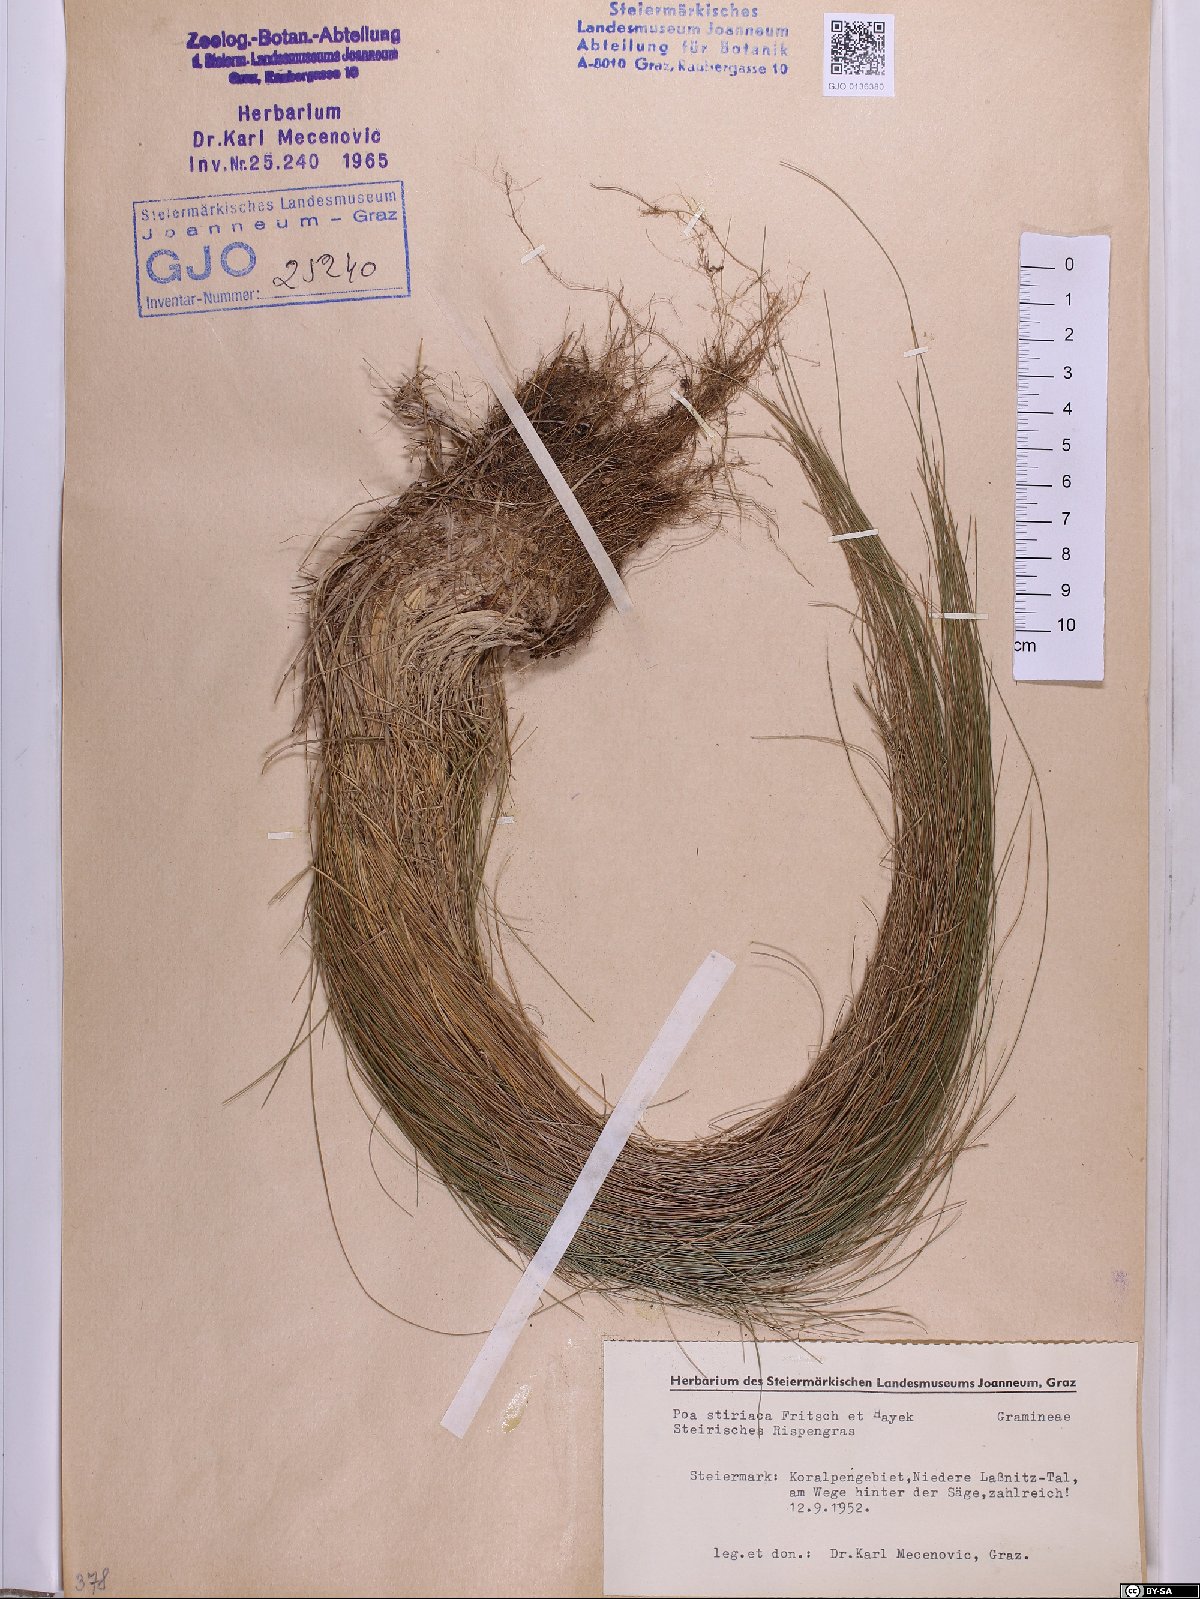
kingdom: Plantae
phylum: Tracheophyta
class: Liliopsida
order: Poales
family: Poaceae
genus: Poa
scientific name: Poa stiriaca
